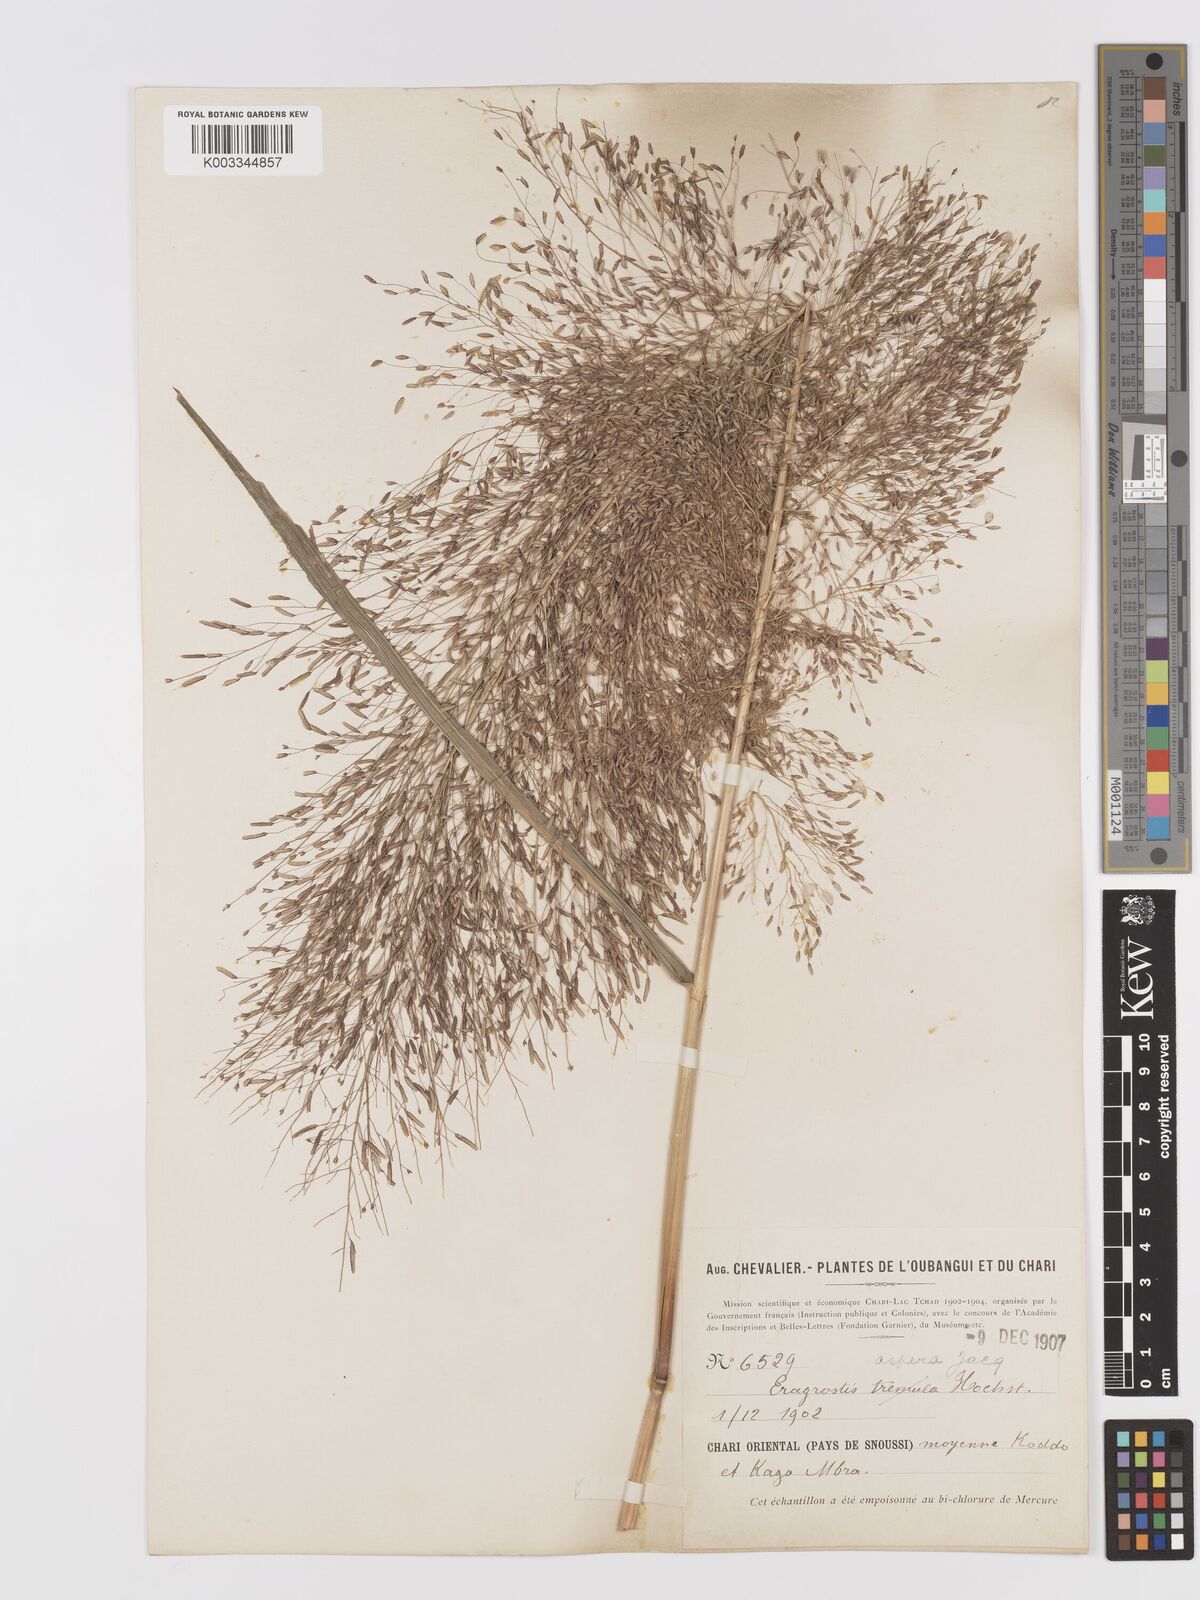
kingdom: Plantae
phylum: Tracheophyta
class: Liliopsida
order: Poales
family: Poaceae
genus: Eragrostis
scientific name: Eragrostis aspera
